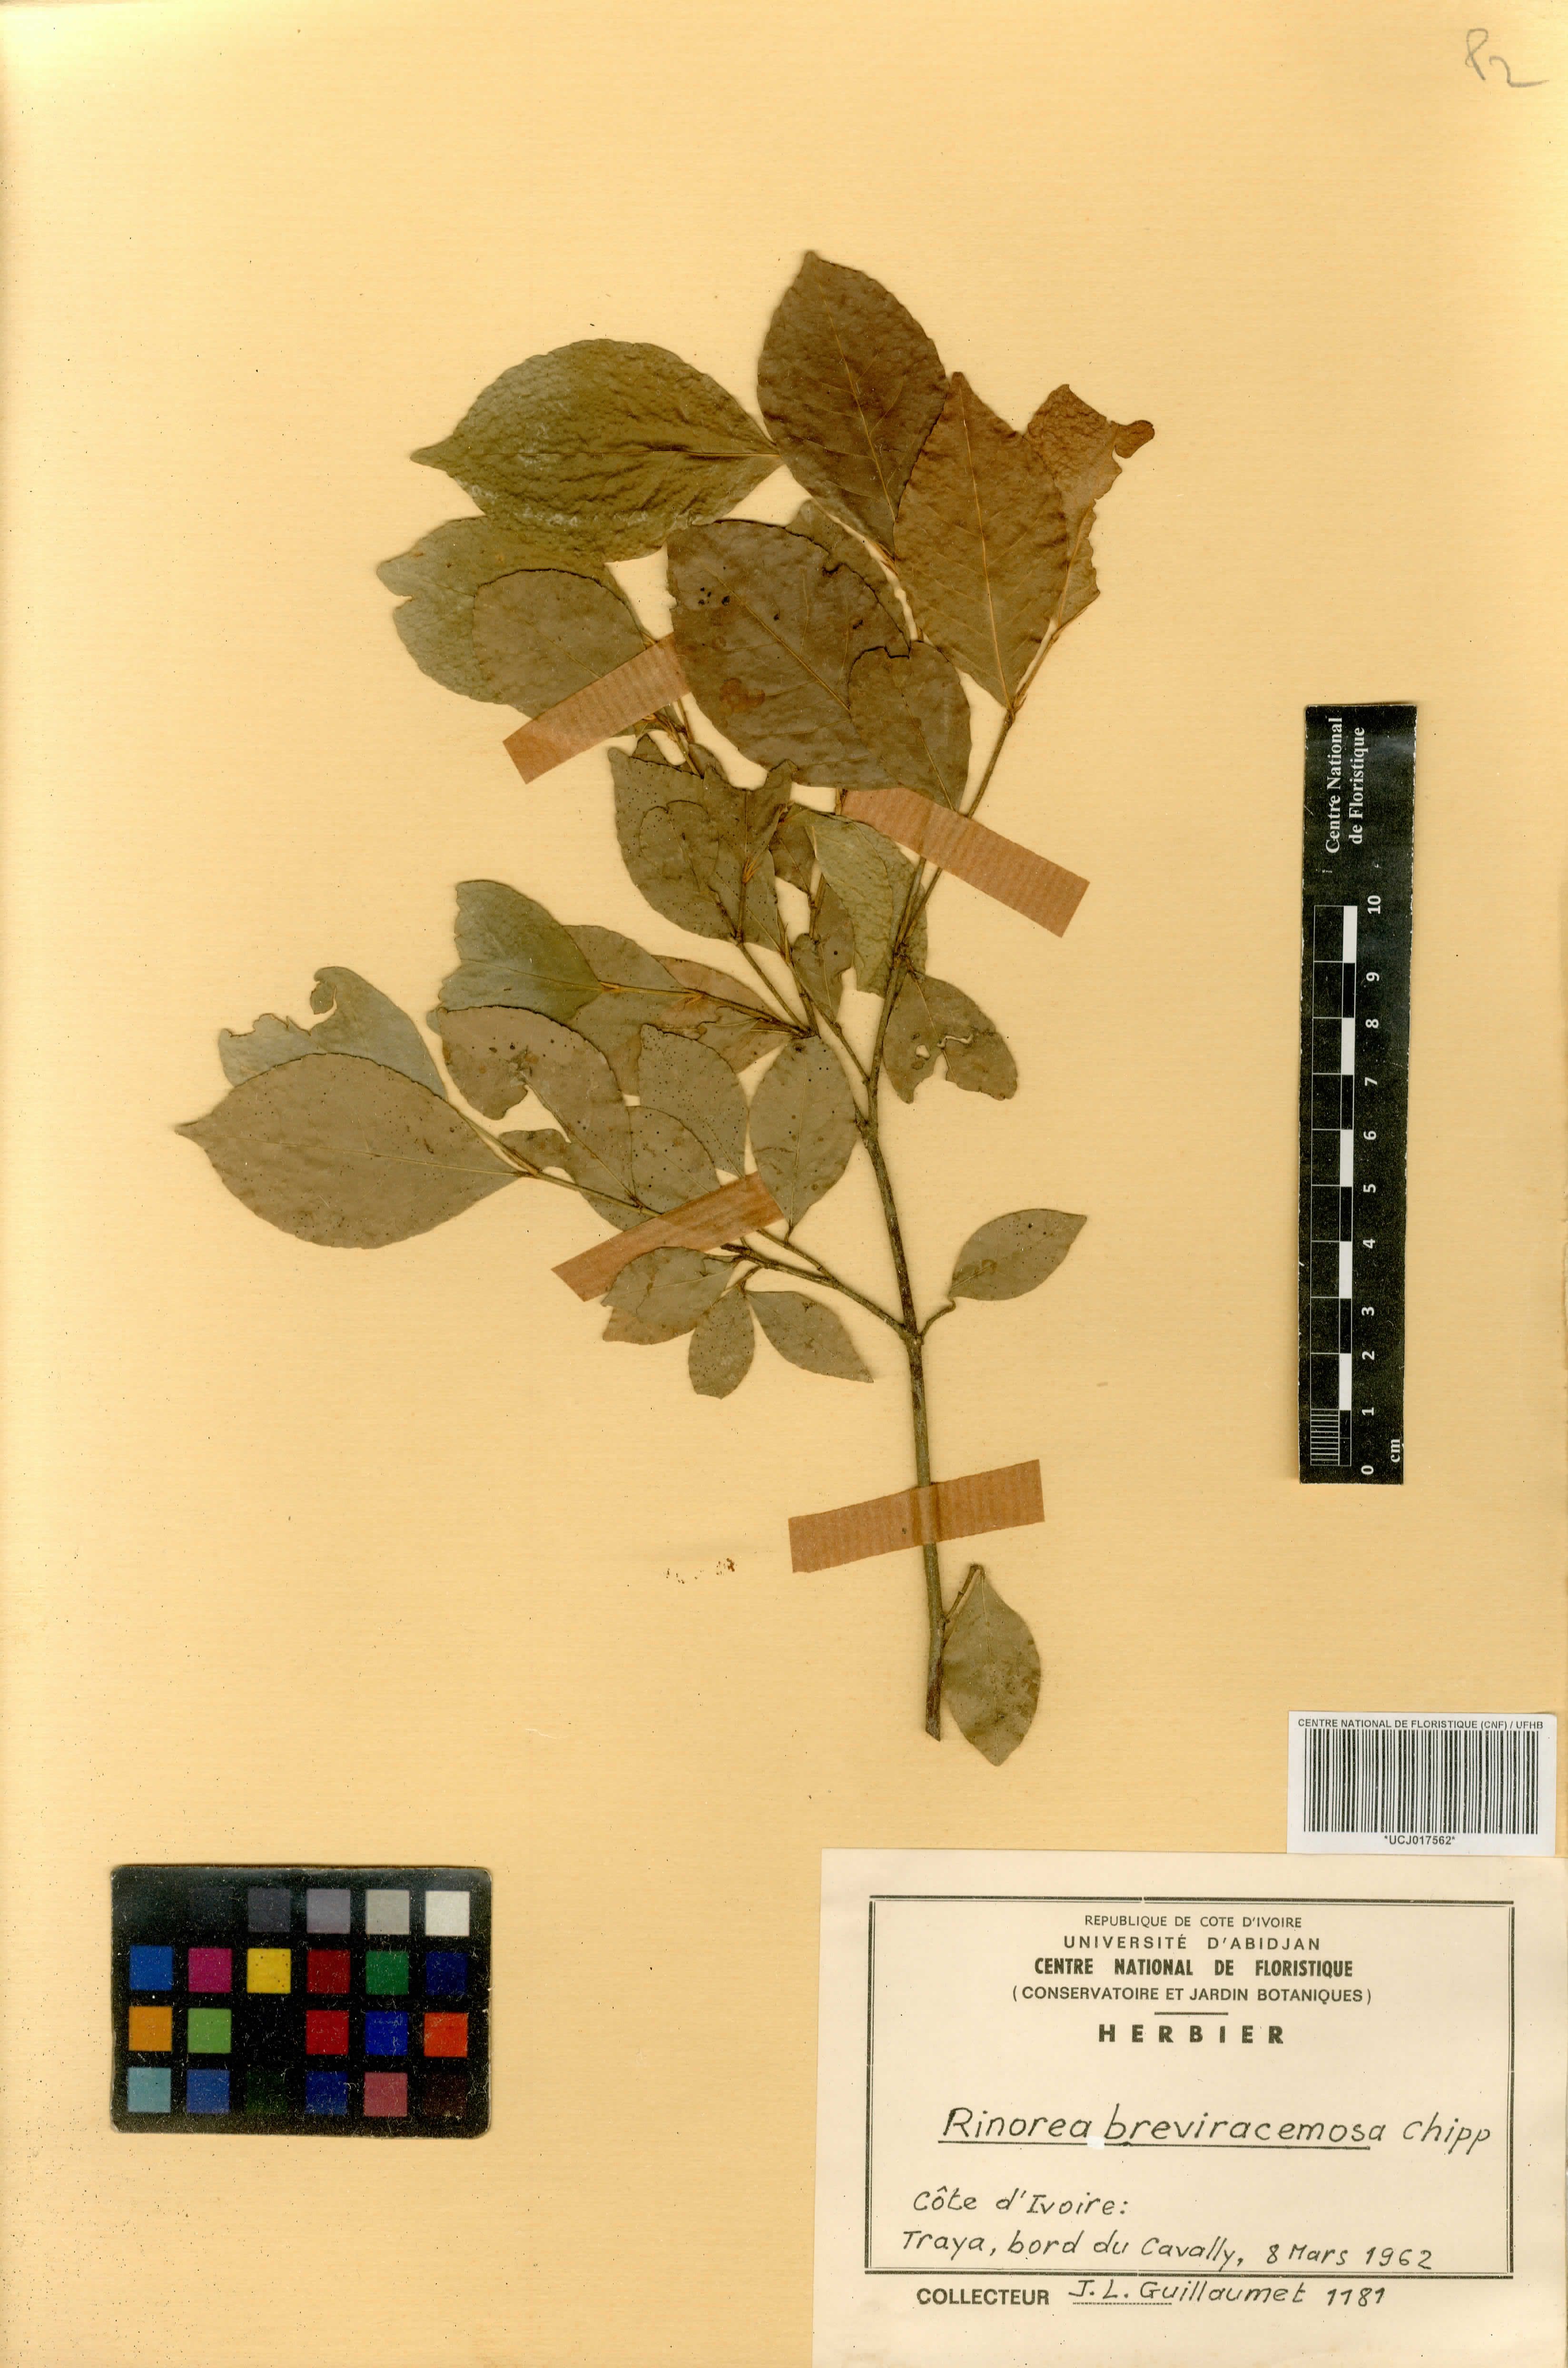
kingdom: Plantae
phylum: Tracheophyta
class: Magnoliopsida
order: Malpighiales
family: Violaceae
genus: Rinorea
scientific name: Rinorea breviracemosa
